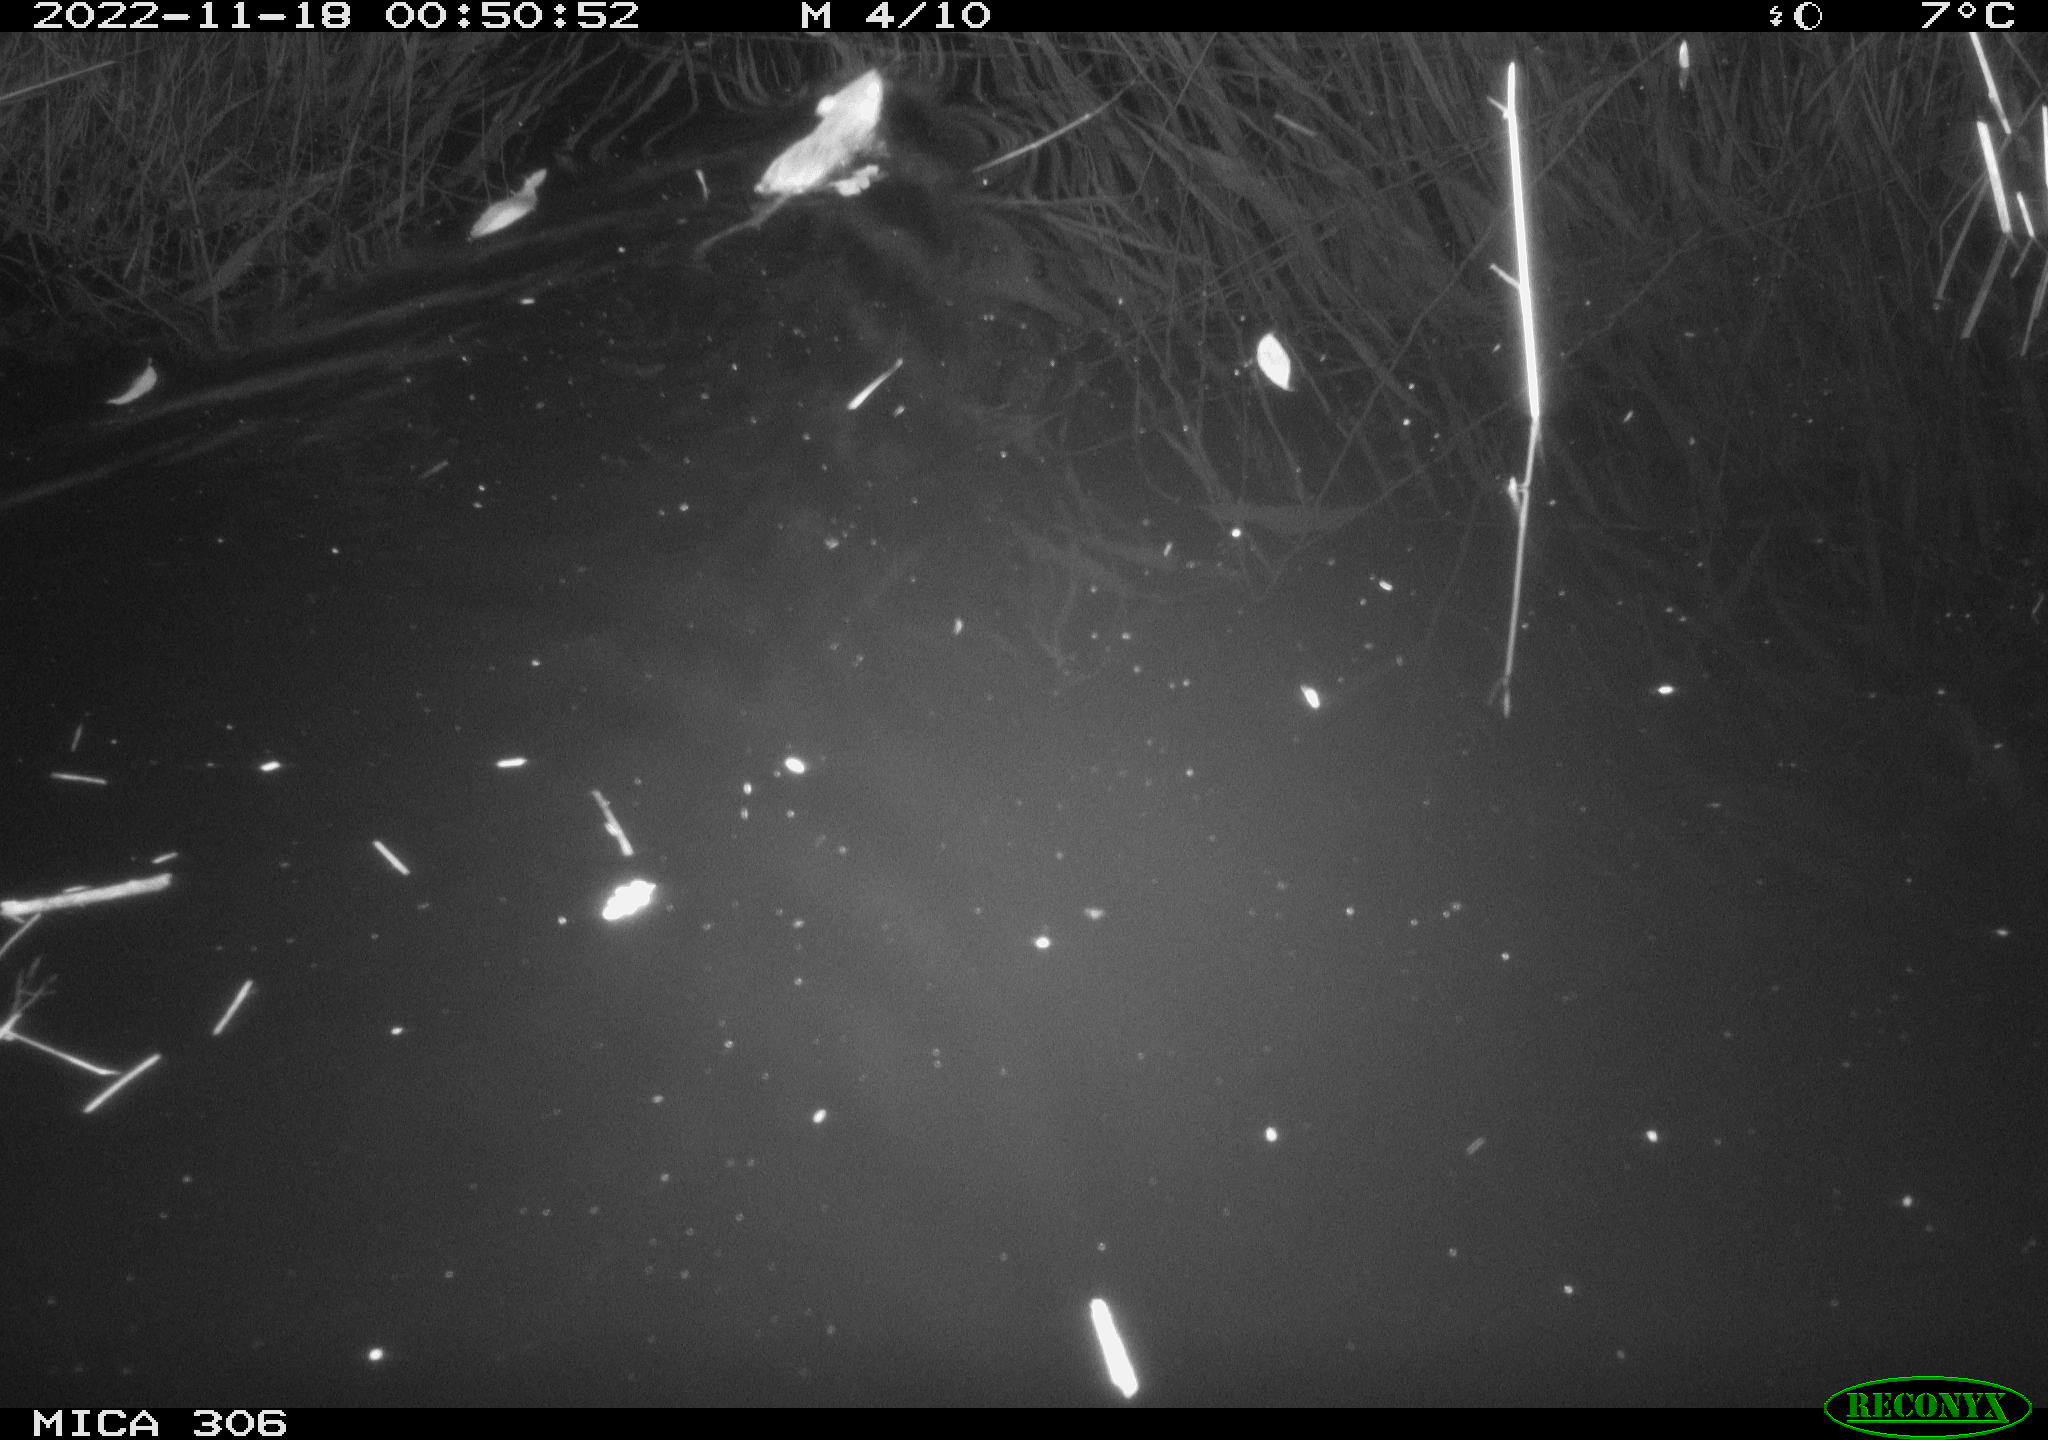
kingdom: Animalia
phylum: Chordata
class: Mammalia
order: Rodentia
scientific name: Rodentia
